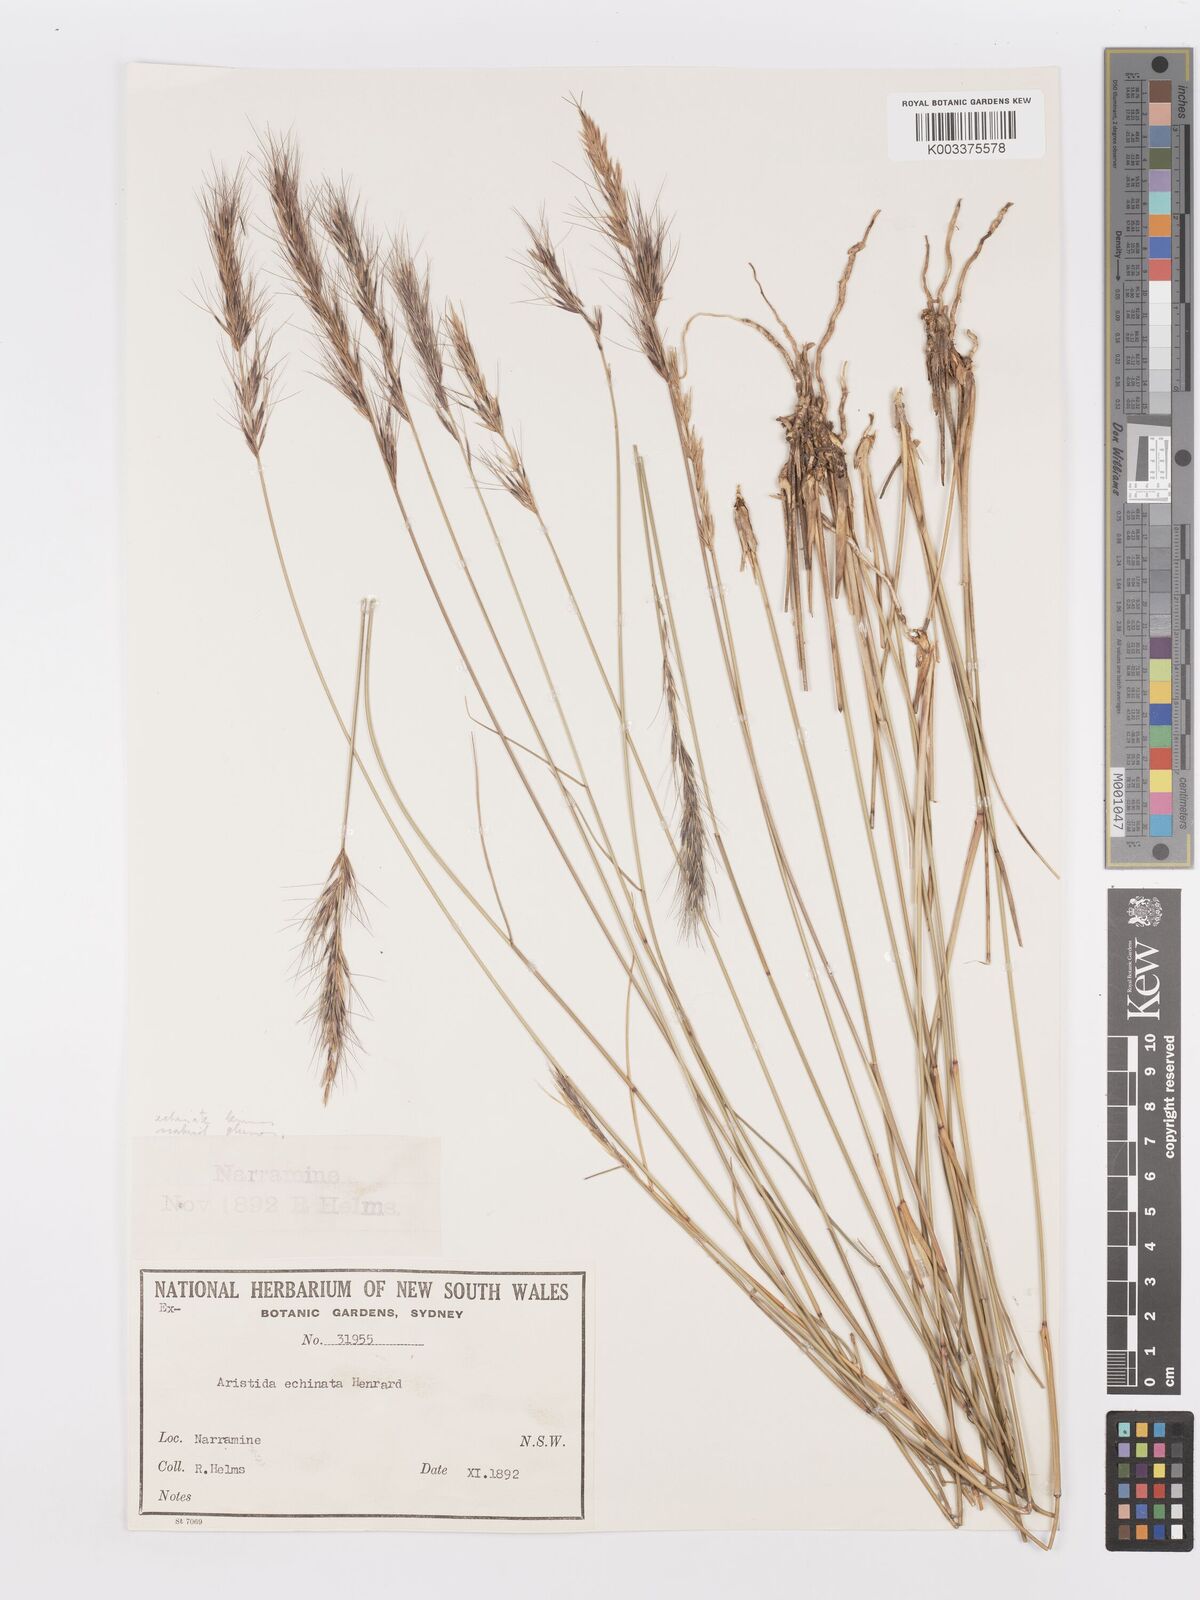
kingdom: Plantae
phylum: Tracheophyta
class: Liliopsida
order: Poales
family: Poaceae
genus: Aristida
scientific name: Aristida echinata
